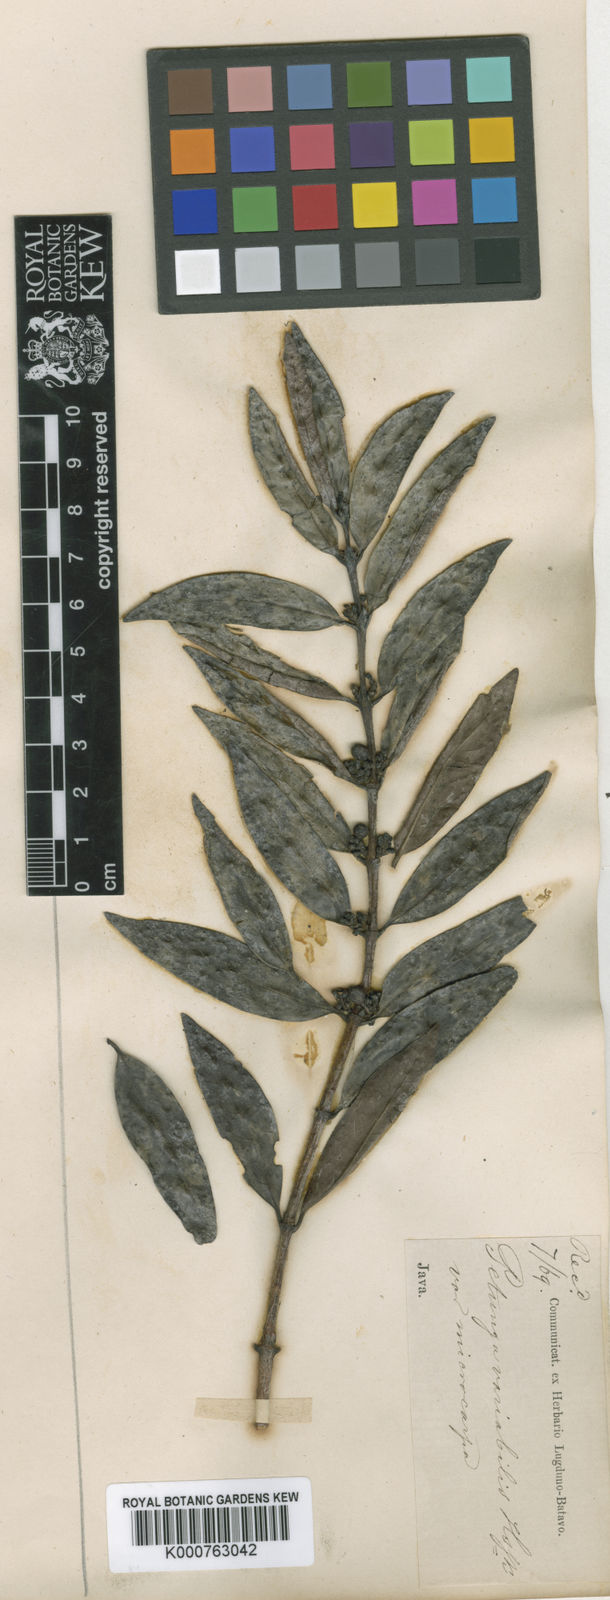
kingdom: Plantae
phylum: Tracheophyta
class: Magnoliopsida
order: Gentianales
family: Rubiaceae
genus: Hypobathrum
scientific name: Hypobathrum racemosum
